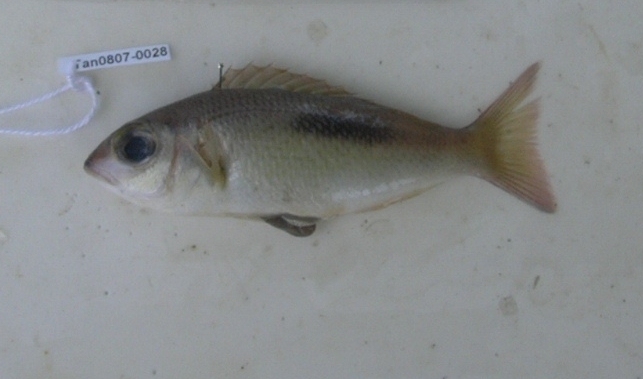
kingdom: Animalia
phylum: Chordata
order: Perciformes
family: Nemipteridae
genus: Scolopsis
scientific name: Scolopsis bimaculata
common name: Thumbprint monocle bream
